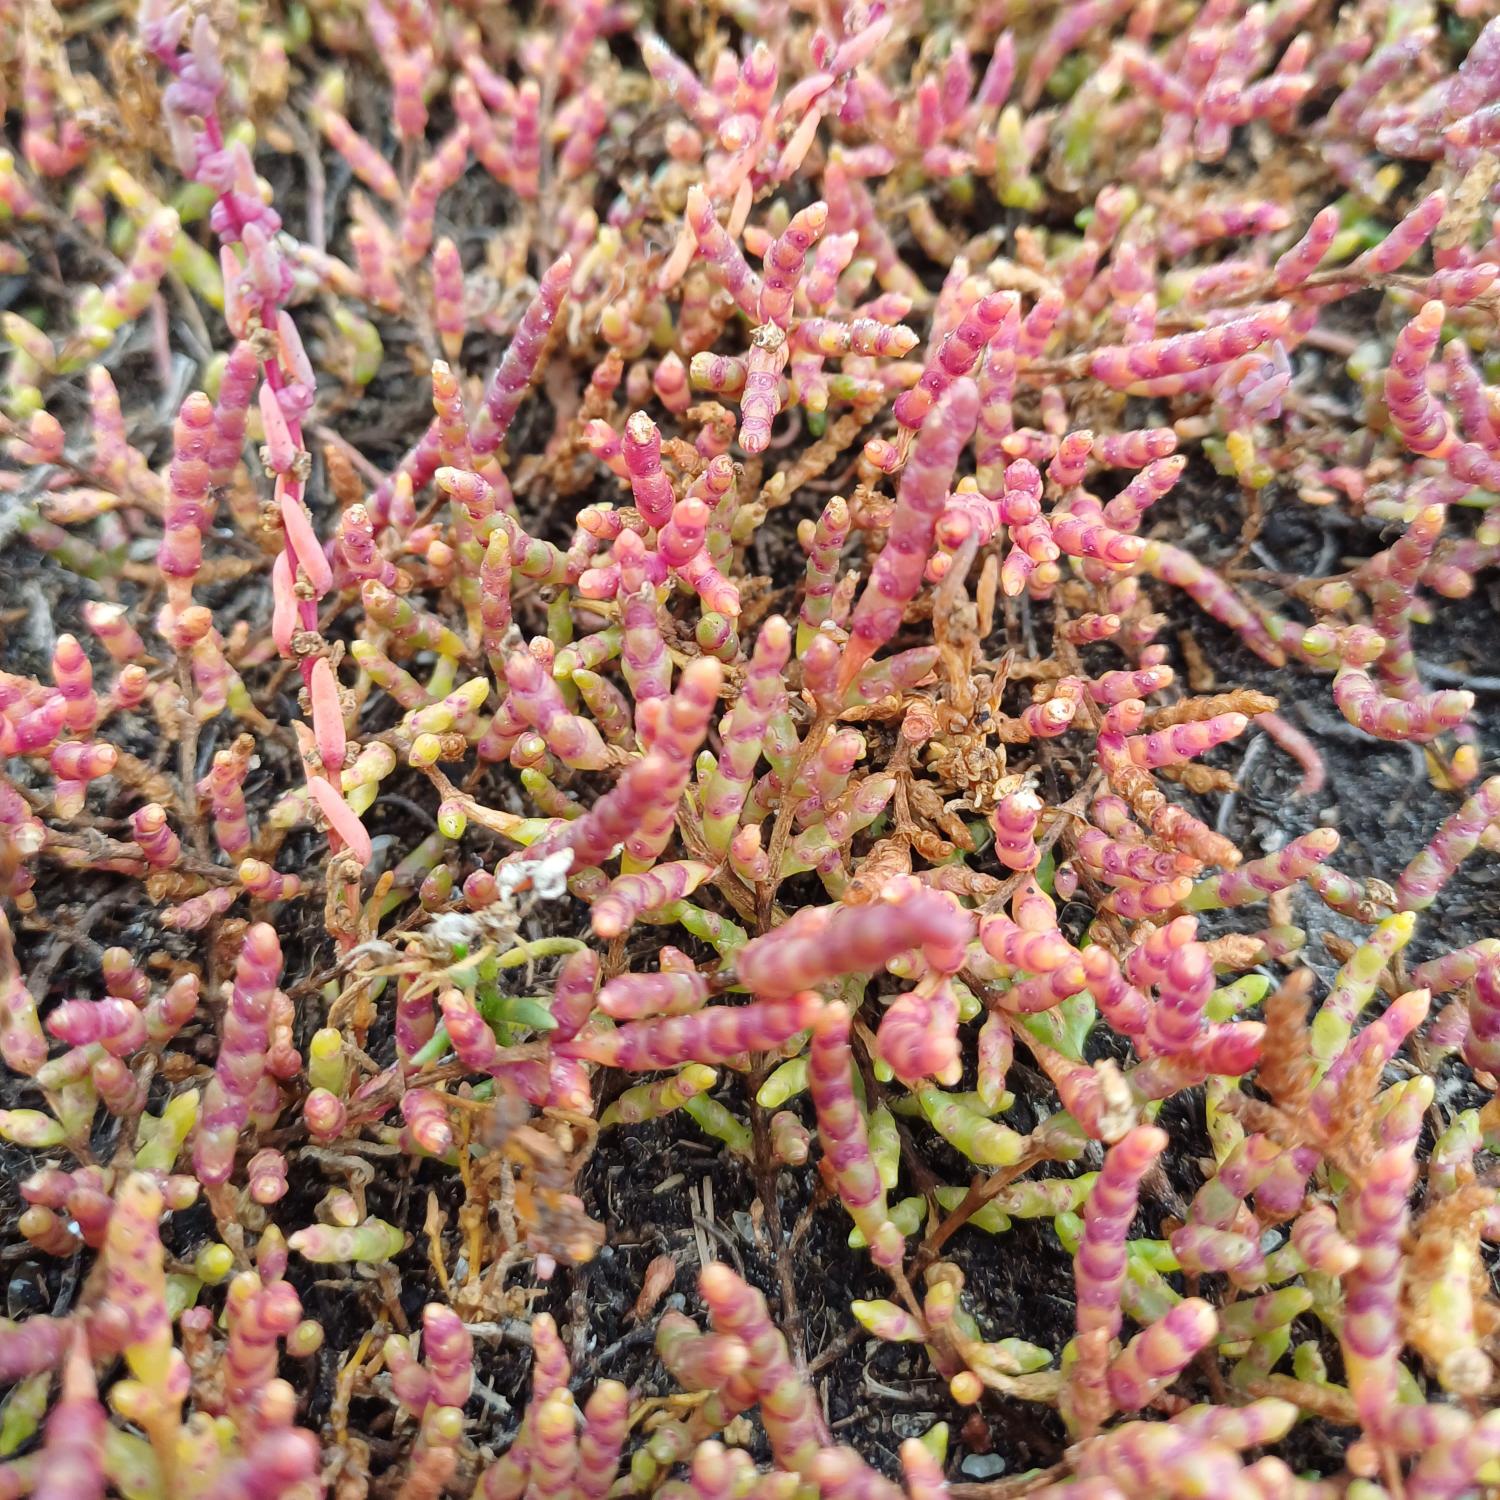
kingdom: Plantae
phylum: Tracheophyta
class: Magnoliopsida
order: Caryophyllales
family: Amaranthaceae
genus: Salicornia
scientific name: Salicornia europaea
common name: Almindelig salturt
